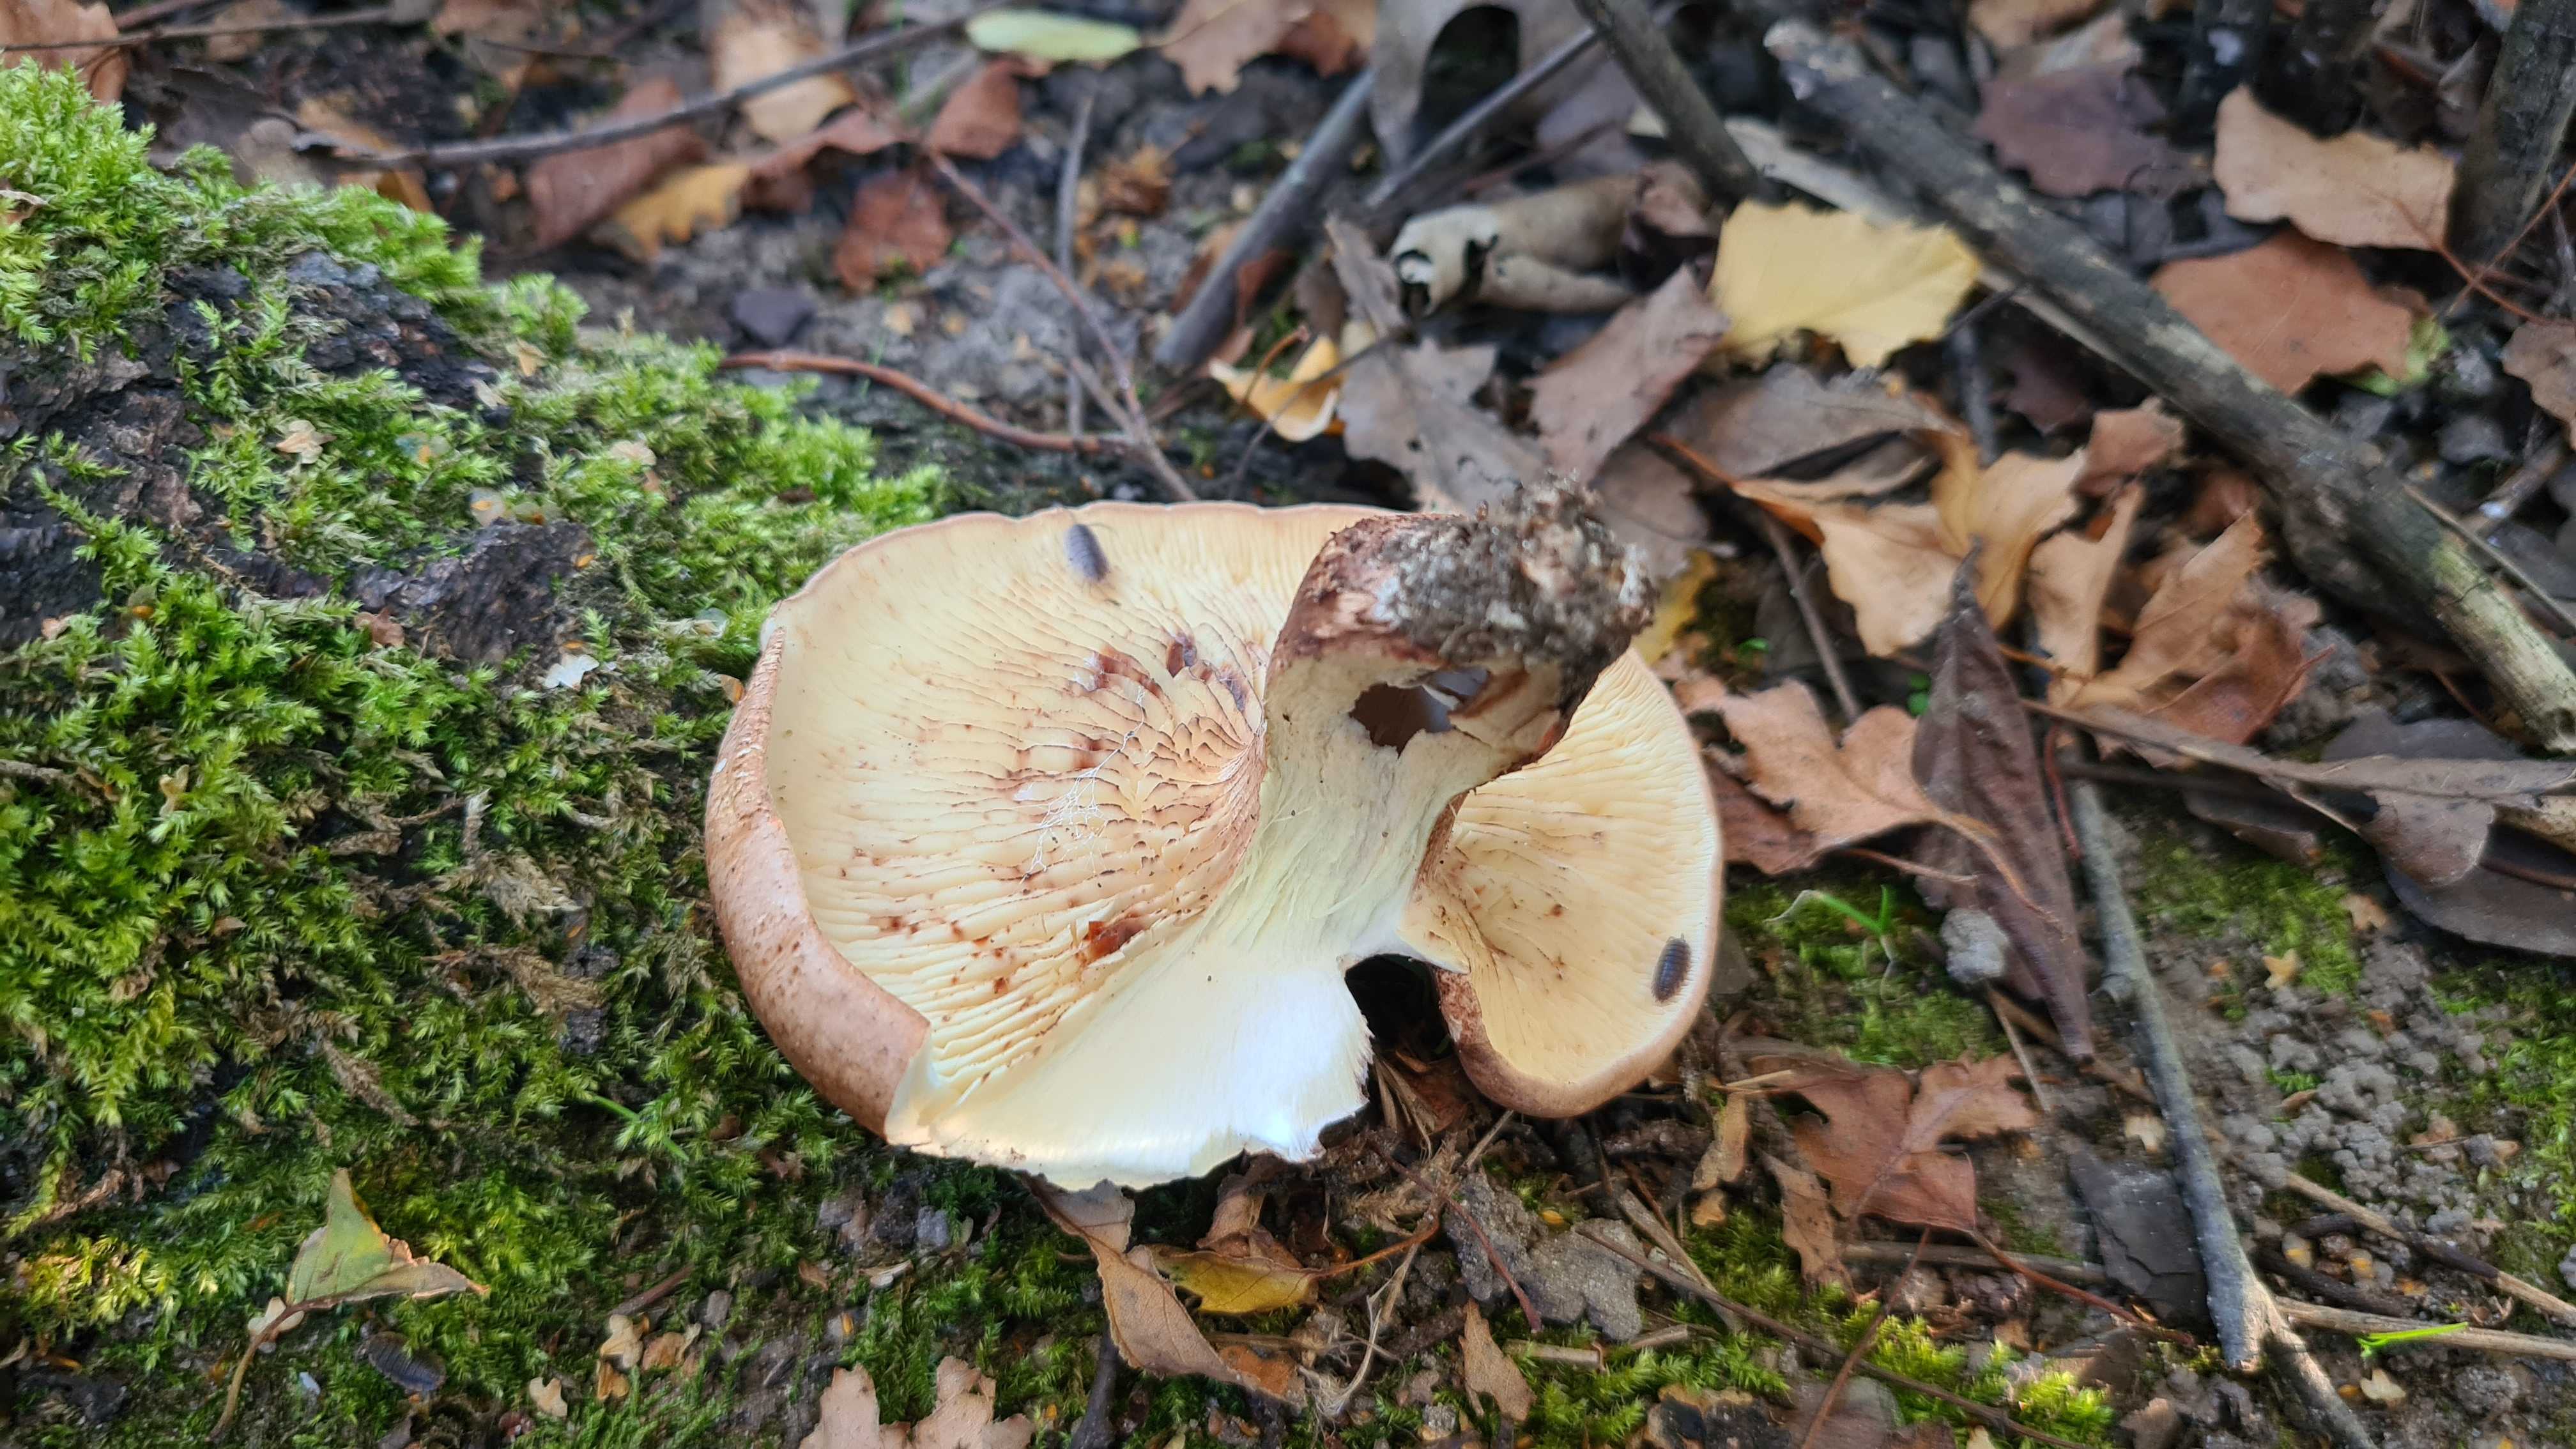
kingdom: Fungi
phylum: Basidiomycota
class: Agaricomycetes
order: Agaricales
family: Tricholomataceae
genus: Tricholoma
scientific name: Tricholoma fulvum
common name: birke-ridderhat
